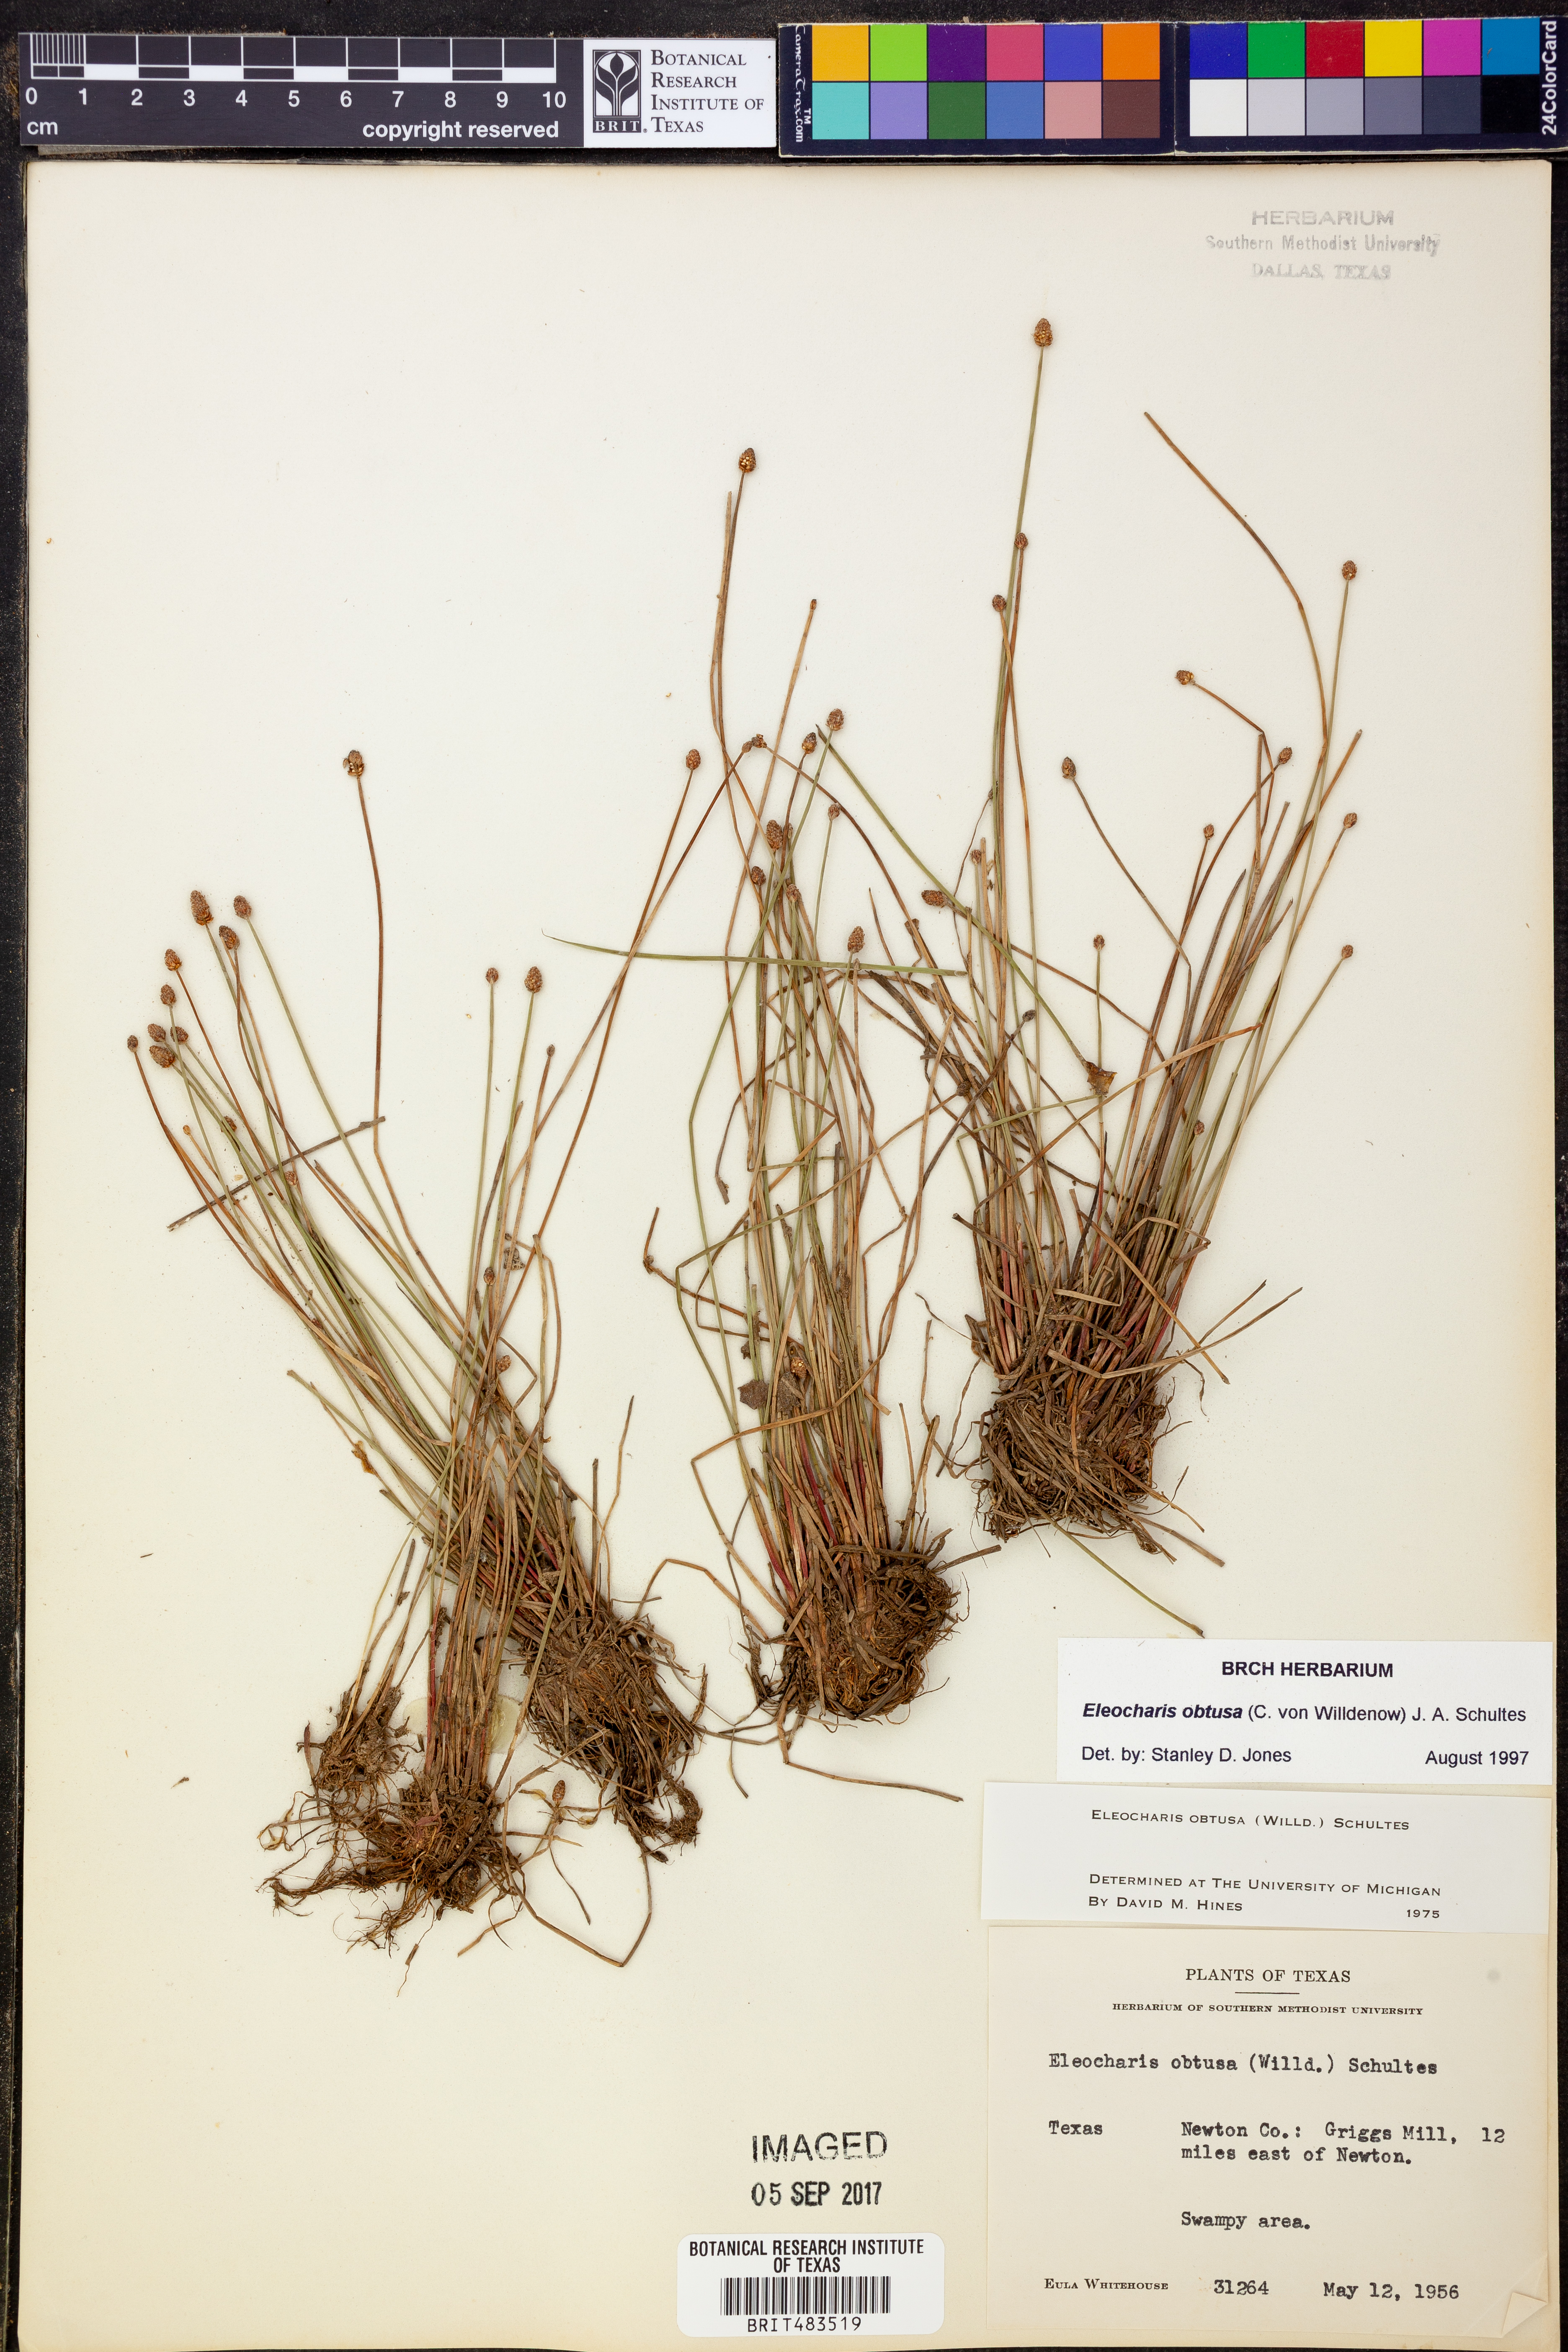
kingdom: Plantae
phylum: Tracheophyta
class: Liliopsida
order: Poales
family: Cyperaceae
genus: Eleocharis
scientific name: Eleocharis obtusa
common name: Blunt spikerush
